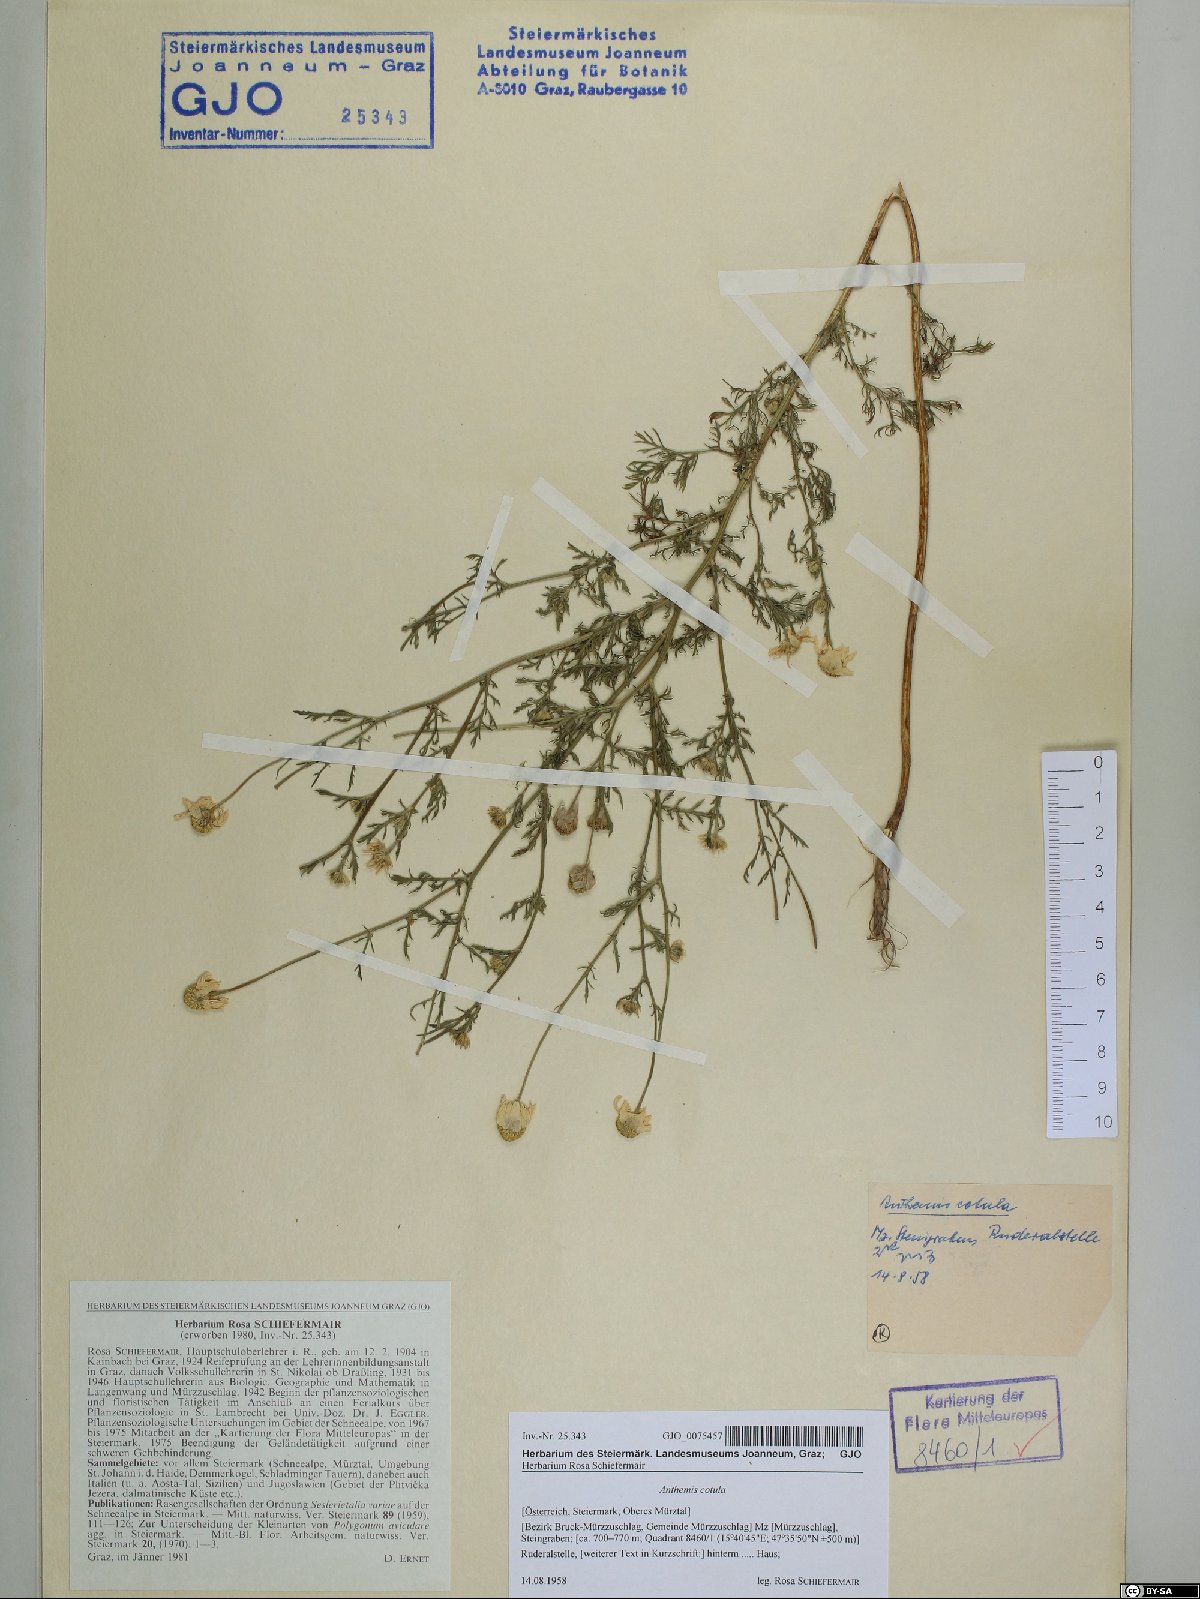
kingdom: Plantae
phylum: Tracheophyta
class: Magnoliopsida
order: Asterales
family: Asteraceae
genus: Anthemis
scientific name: Anthemis cotula
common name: Stinking chamomile
